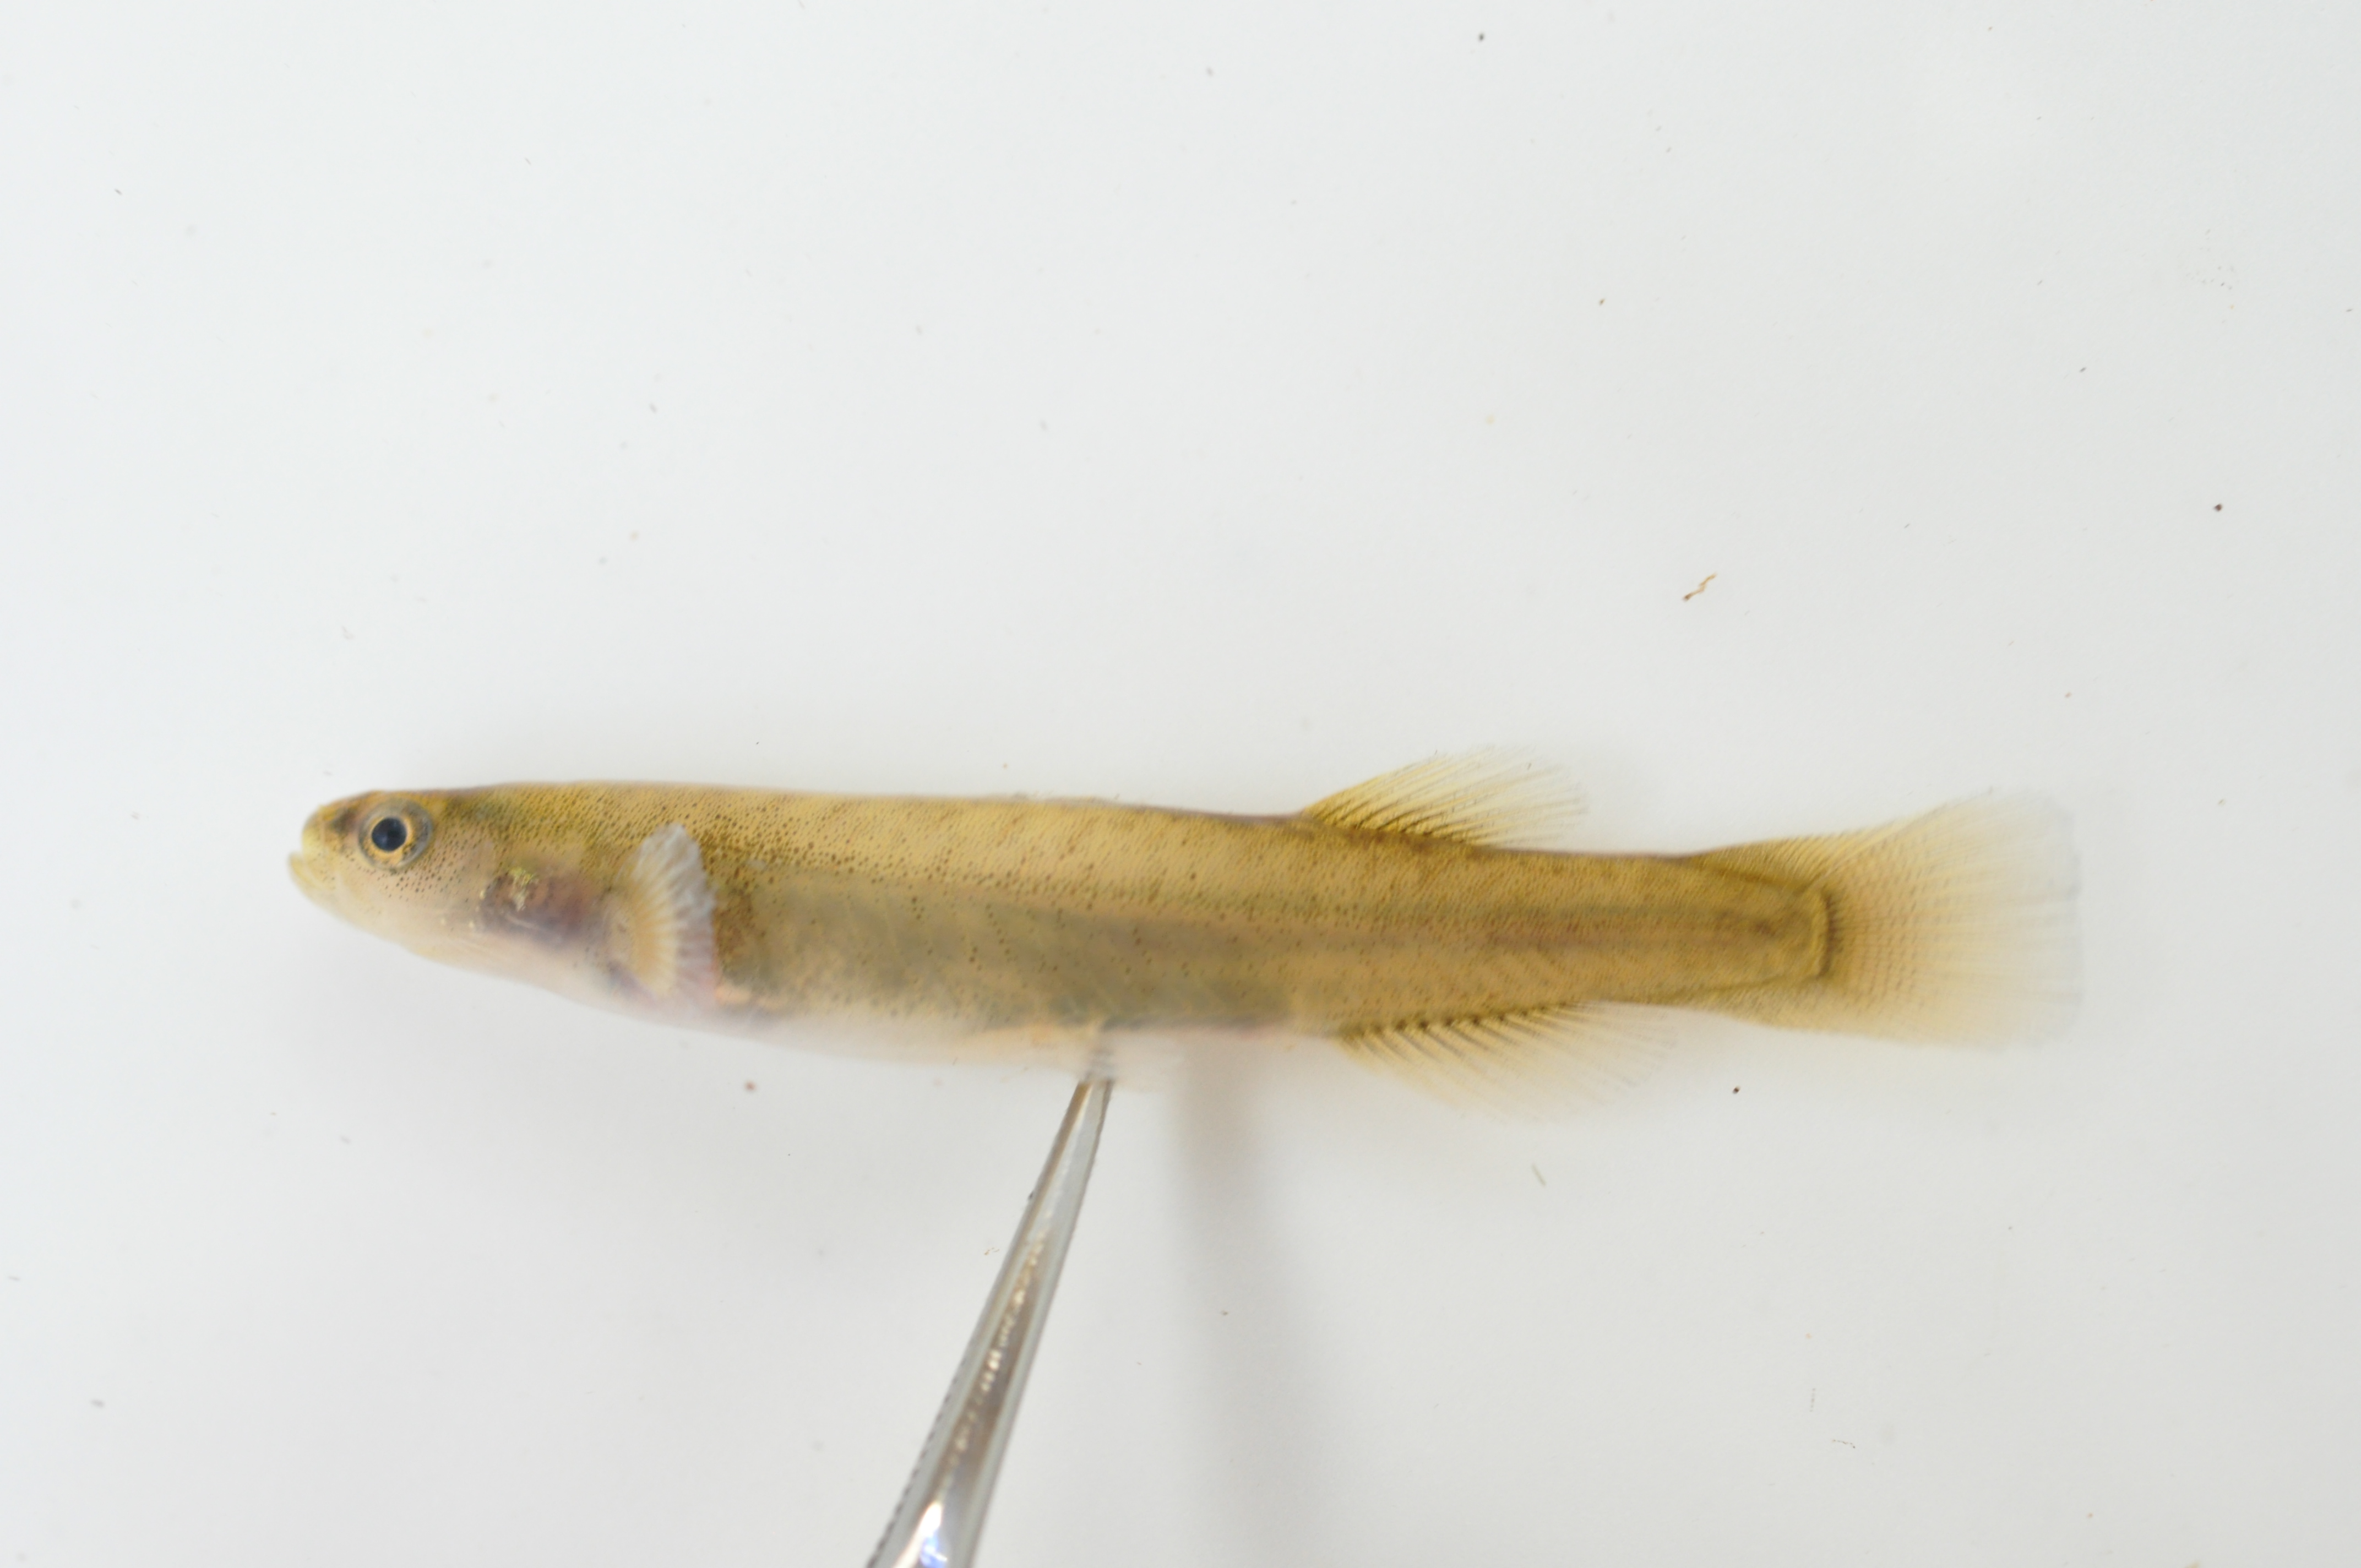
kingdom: Animalia
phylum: Chordata
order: Osmeriformes
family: Galaxiidae
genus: Galaxias
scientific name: Galaxias
